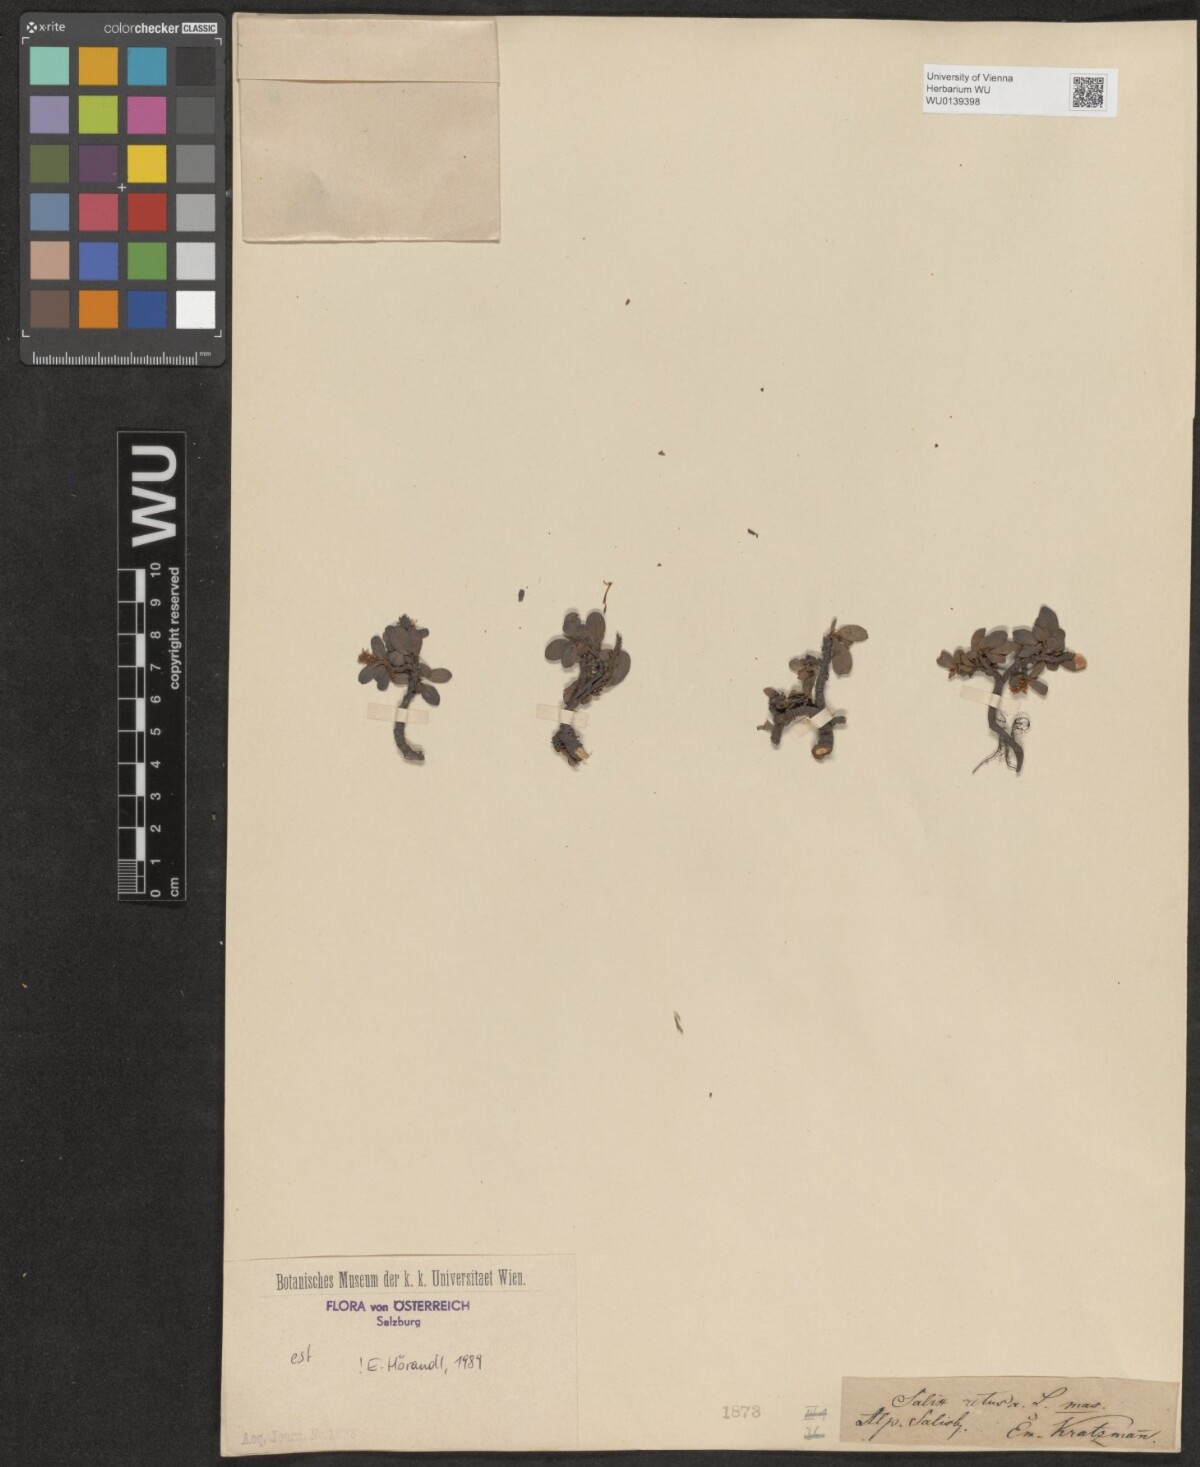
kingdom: Plantae
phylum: Tracheophyta
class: Magnoliopsida
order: Malpighiales
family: Salicaceae
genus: Salix
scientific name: Salix retusa
